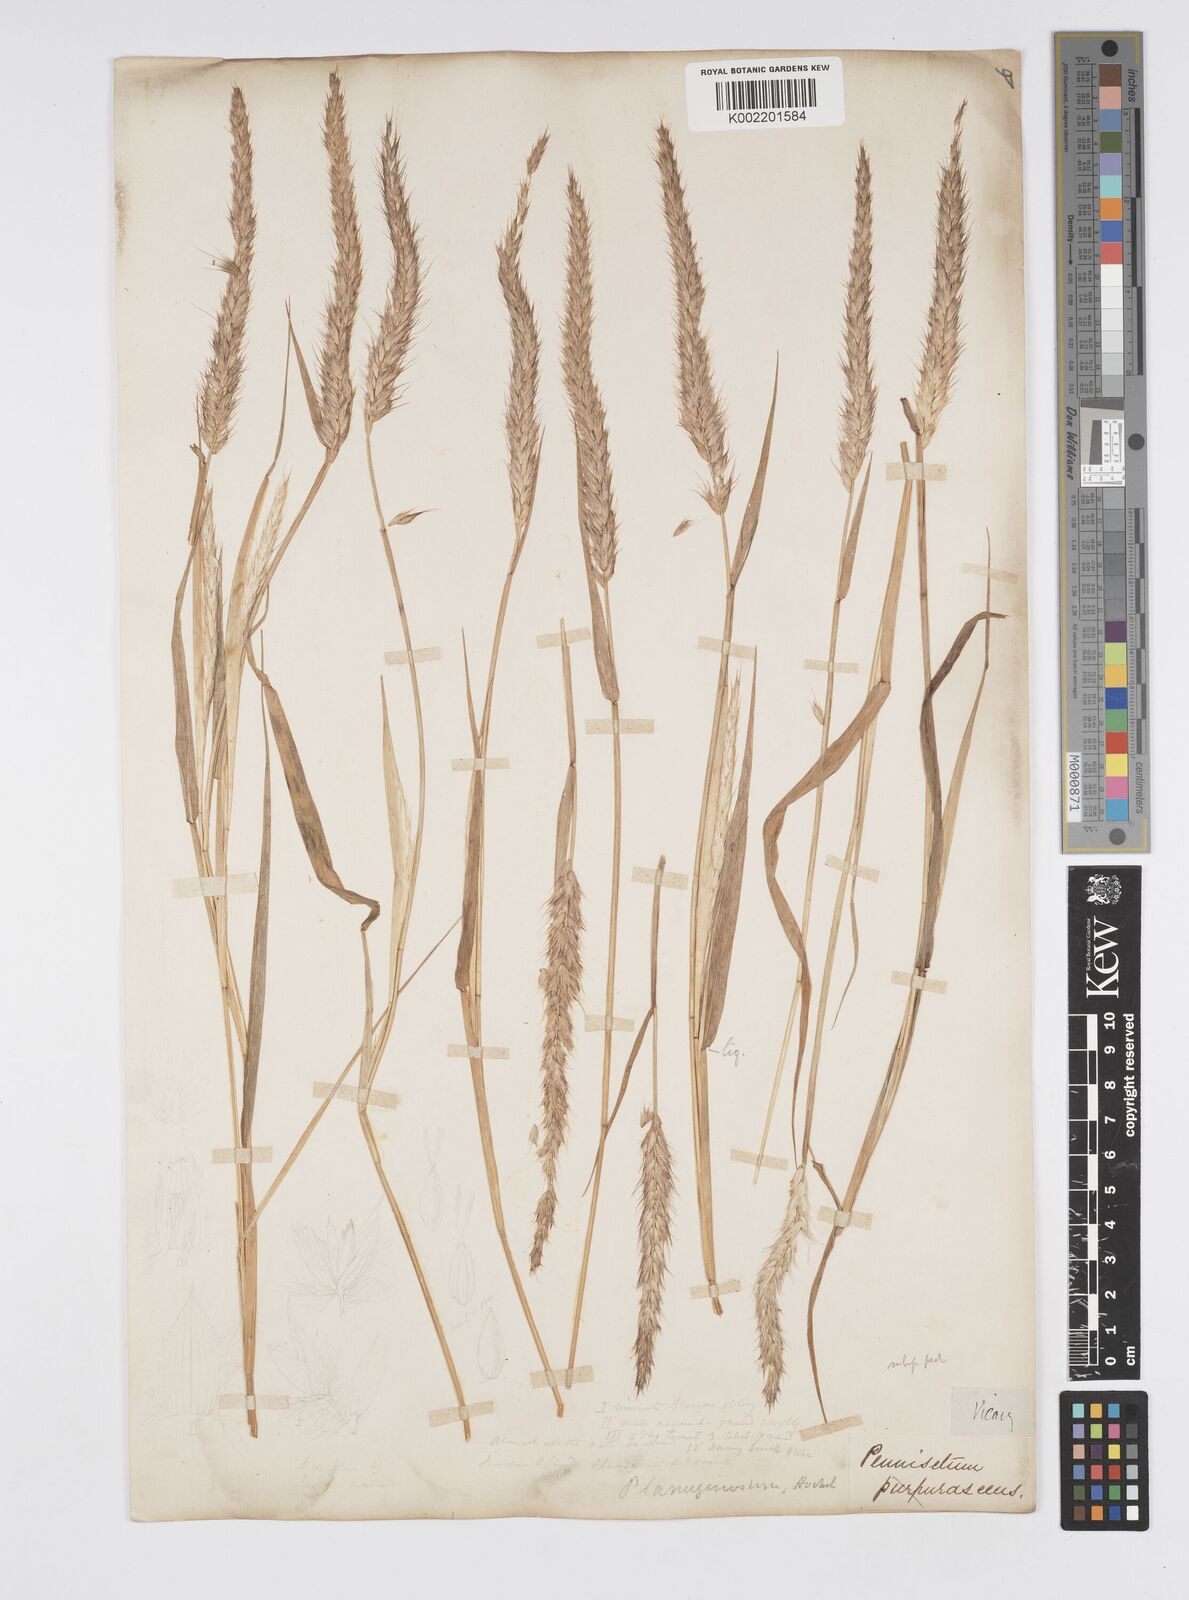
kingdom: Plantae
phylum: Tracheophyta
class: Liliopsida
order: Poales
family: Poaceae
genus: Cenchrus
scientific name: Cenchrus pedicellatus
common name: Hairy fountain grass
